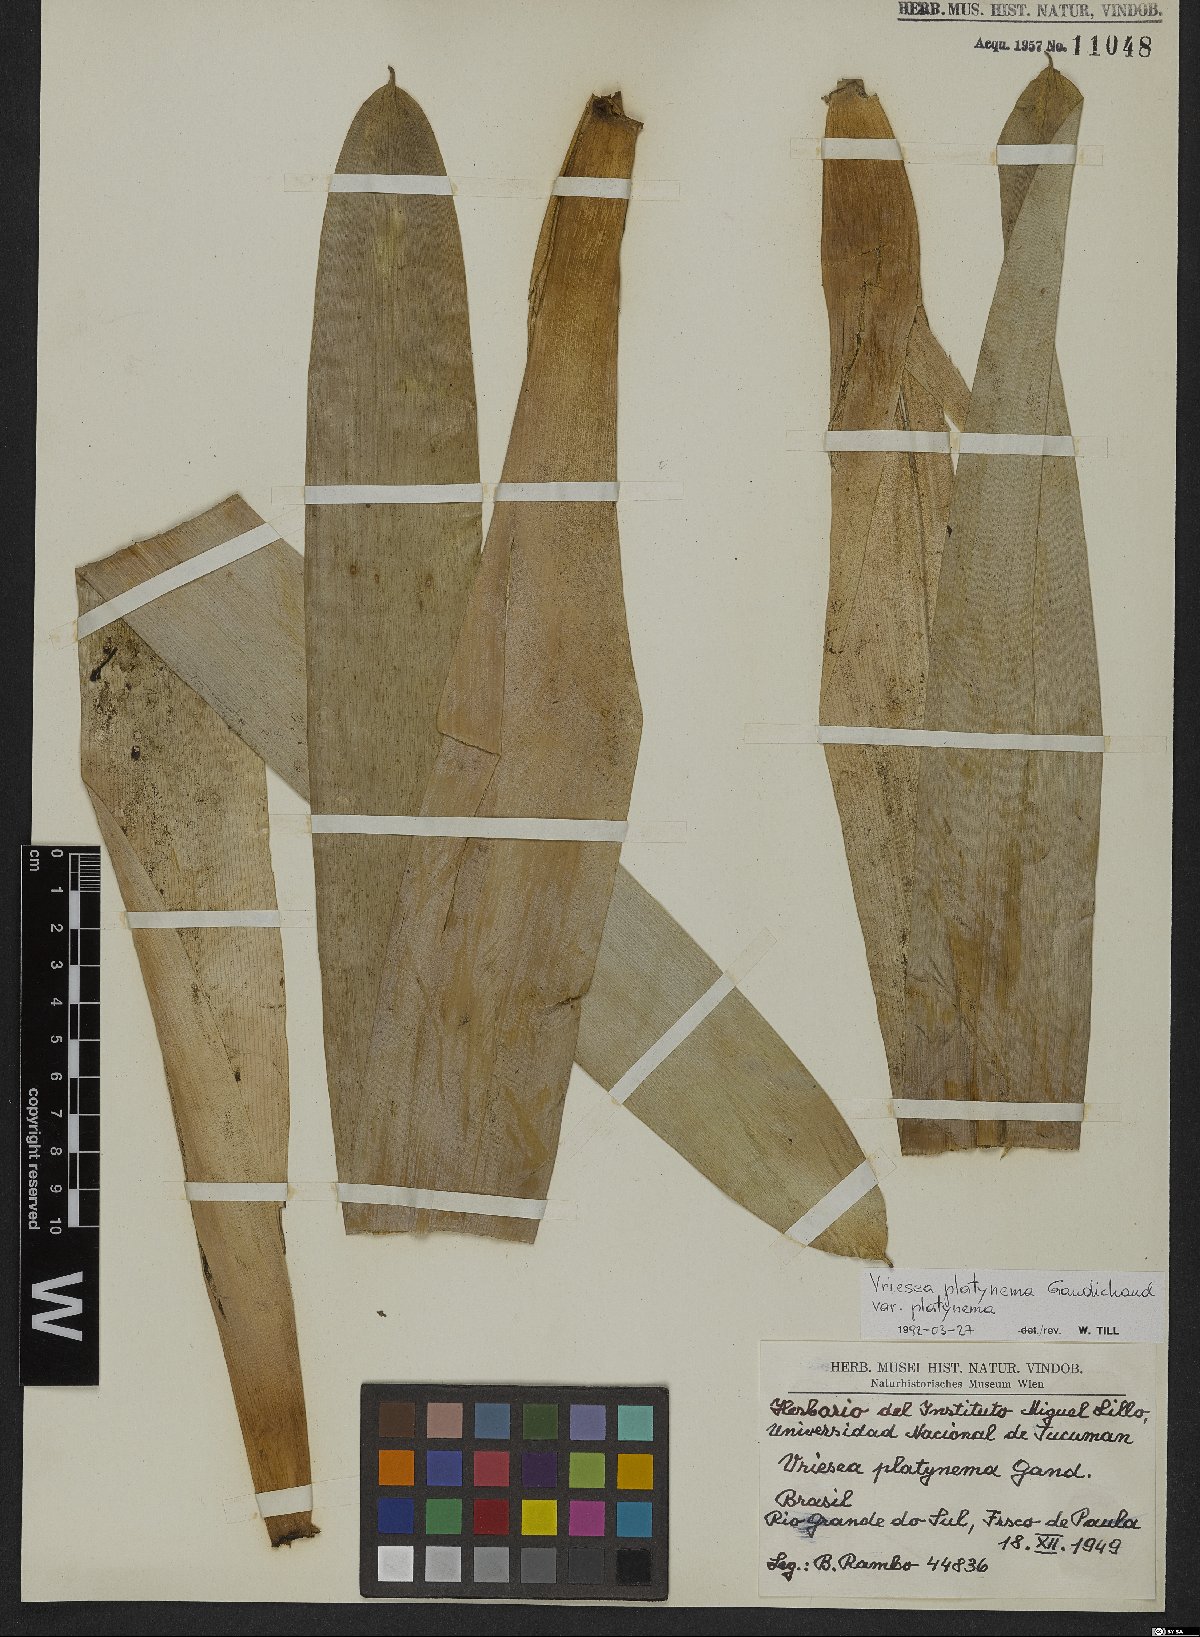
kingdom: Plantae
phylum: Tracheophyta
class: Liliopsida
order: Poales
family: Bromeliaceae
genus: Vriesea
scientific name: Vriesea platynema
